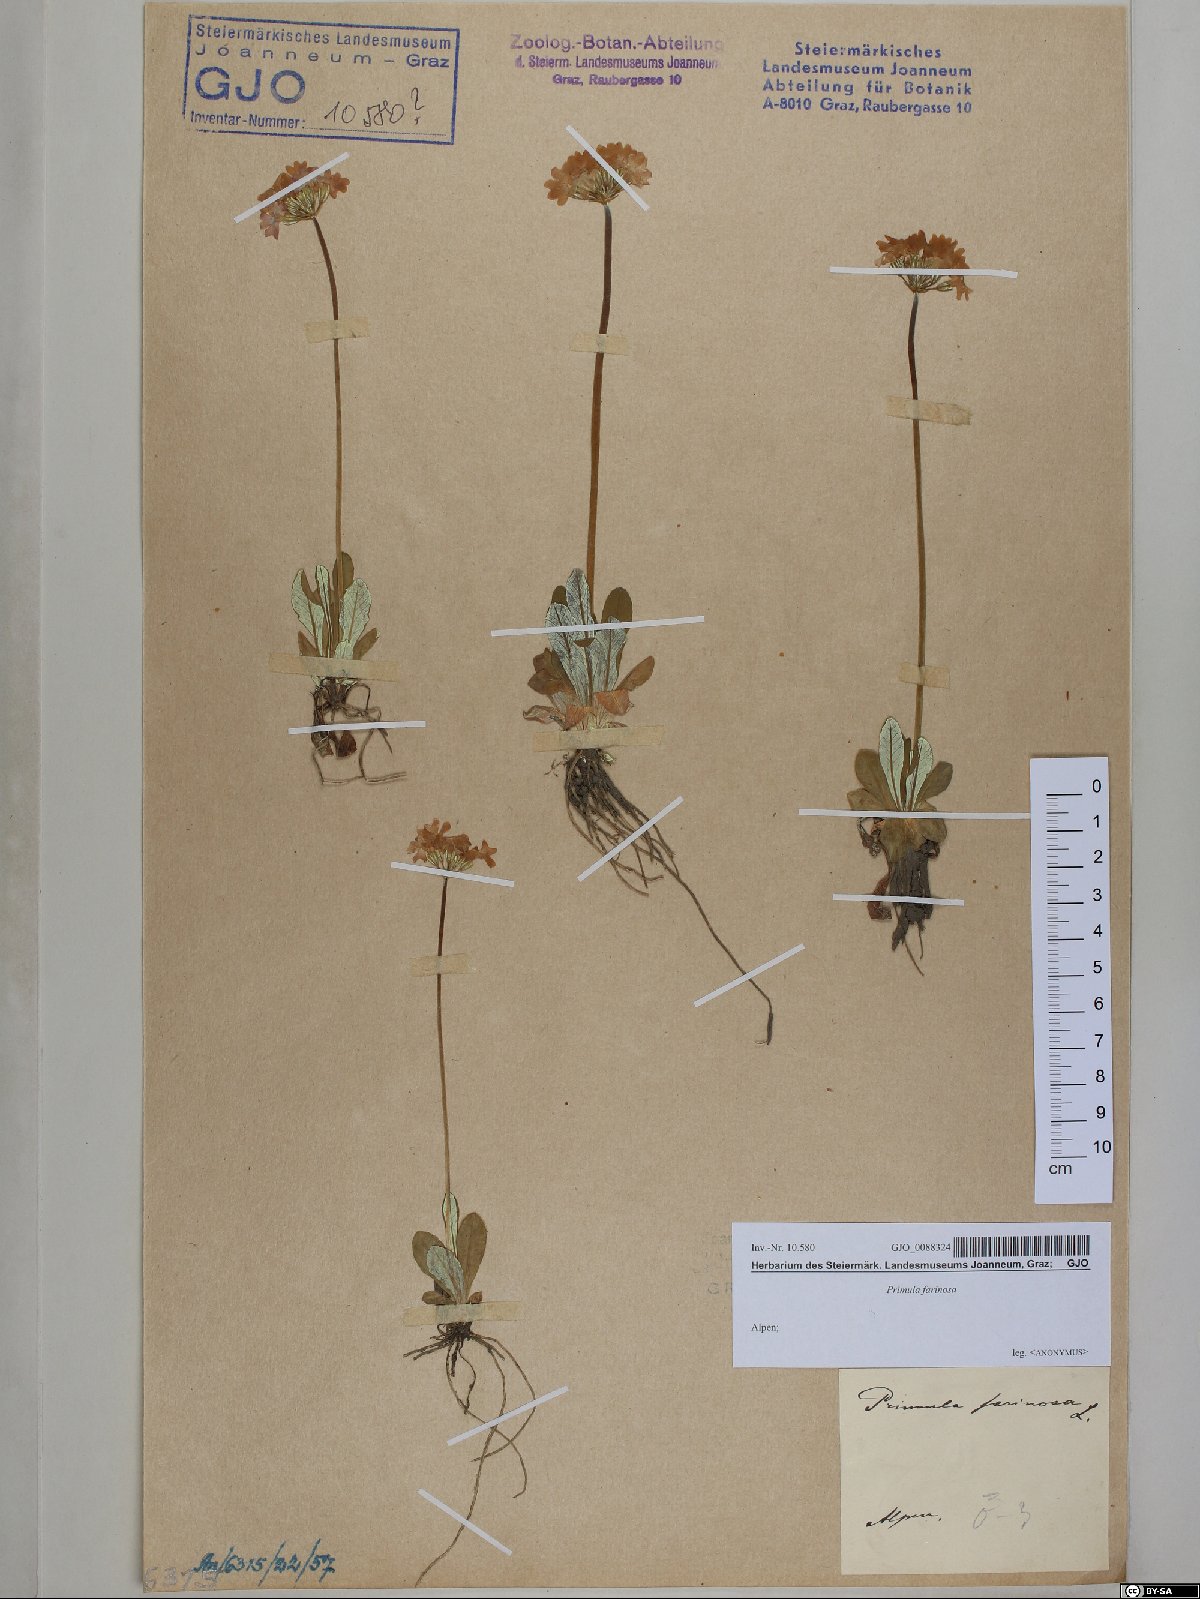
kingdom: Plantae
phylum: Tracheophyta
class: Magnoliopsida
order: Ericales
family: Primulaceae
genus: Primula
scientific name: Primula farinosa
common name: Bird's-eye primrose
